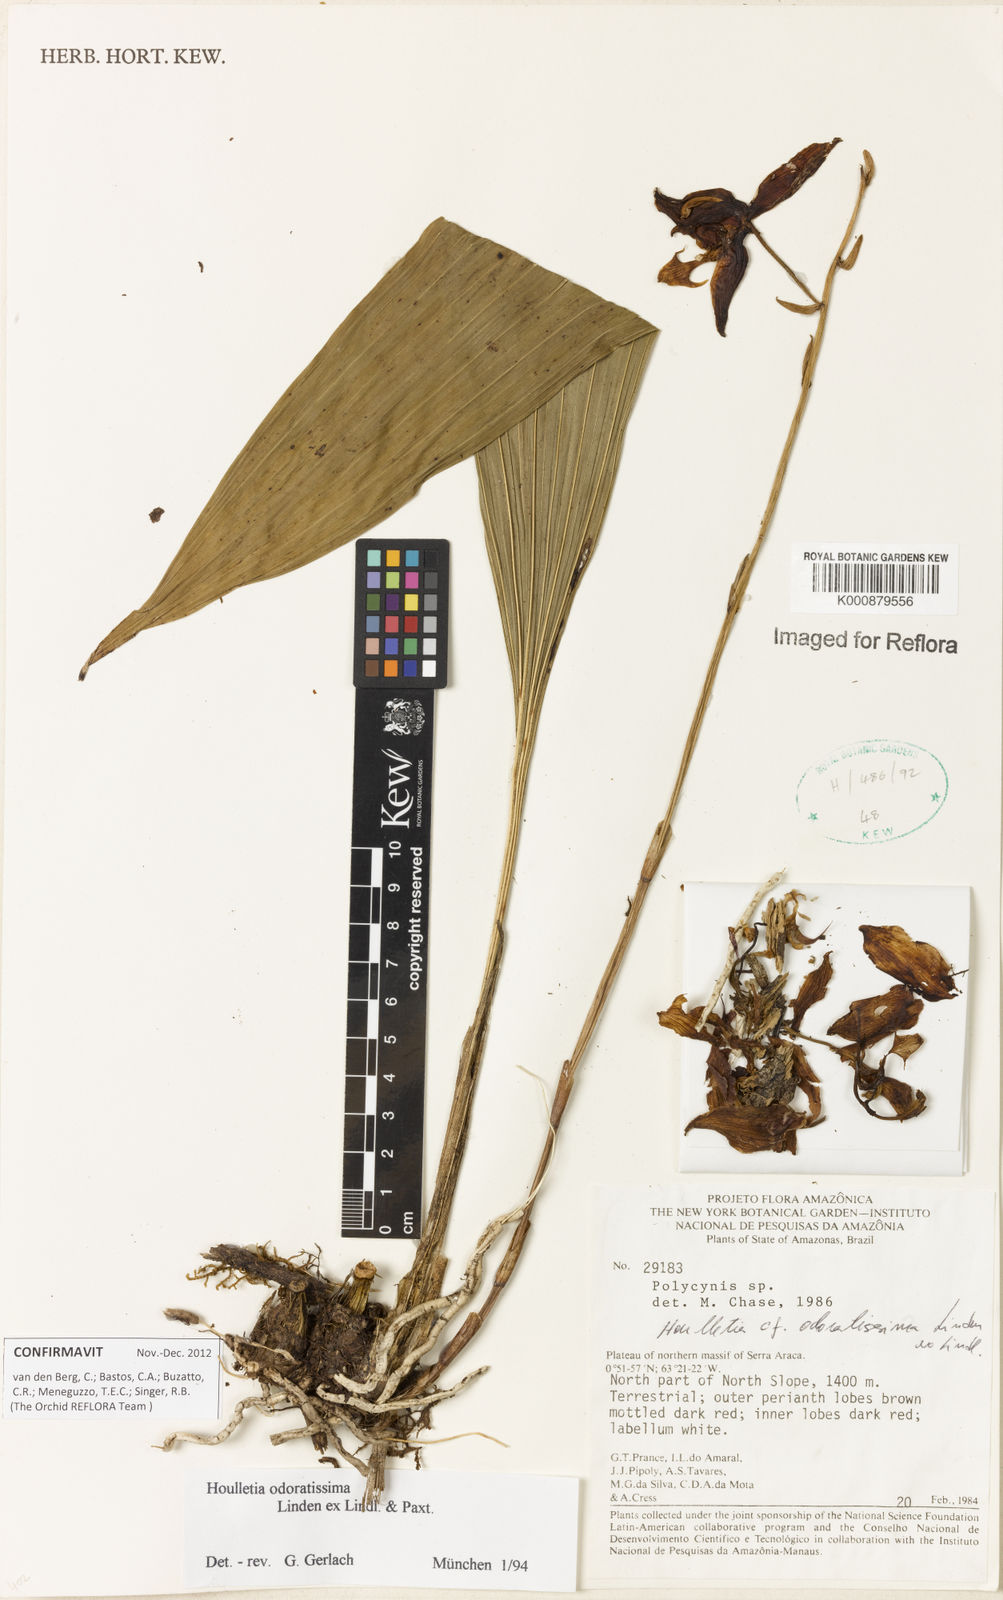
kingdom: Plantae
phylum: Tracheophyta
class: Liliopsida
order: Asparagales
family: Orchidaceae
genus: Houlletia
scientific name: Houlletia odoratissima
